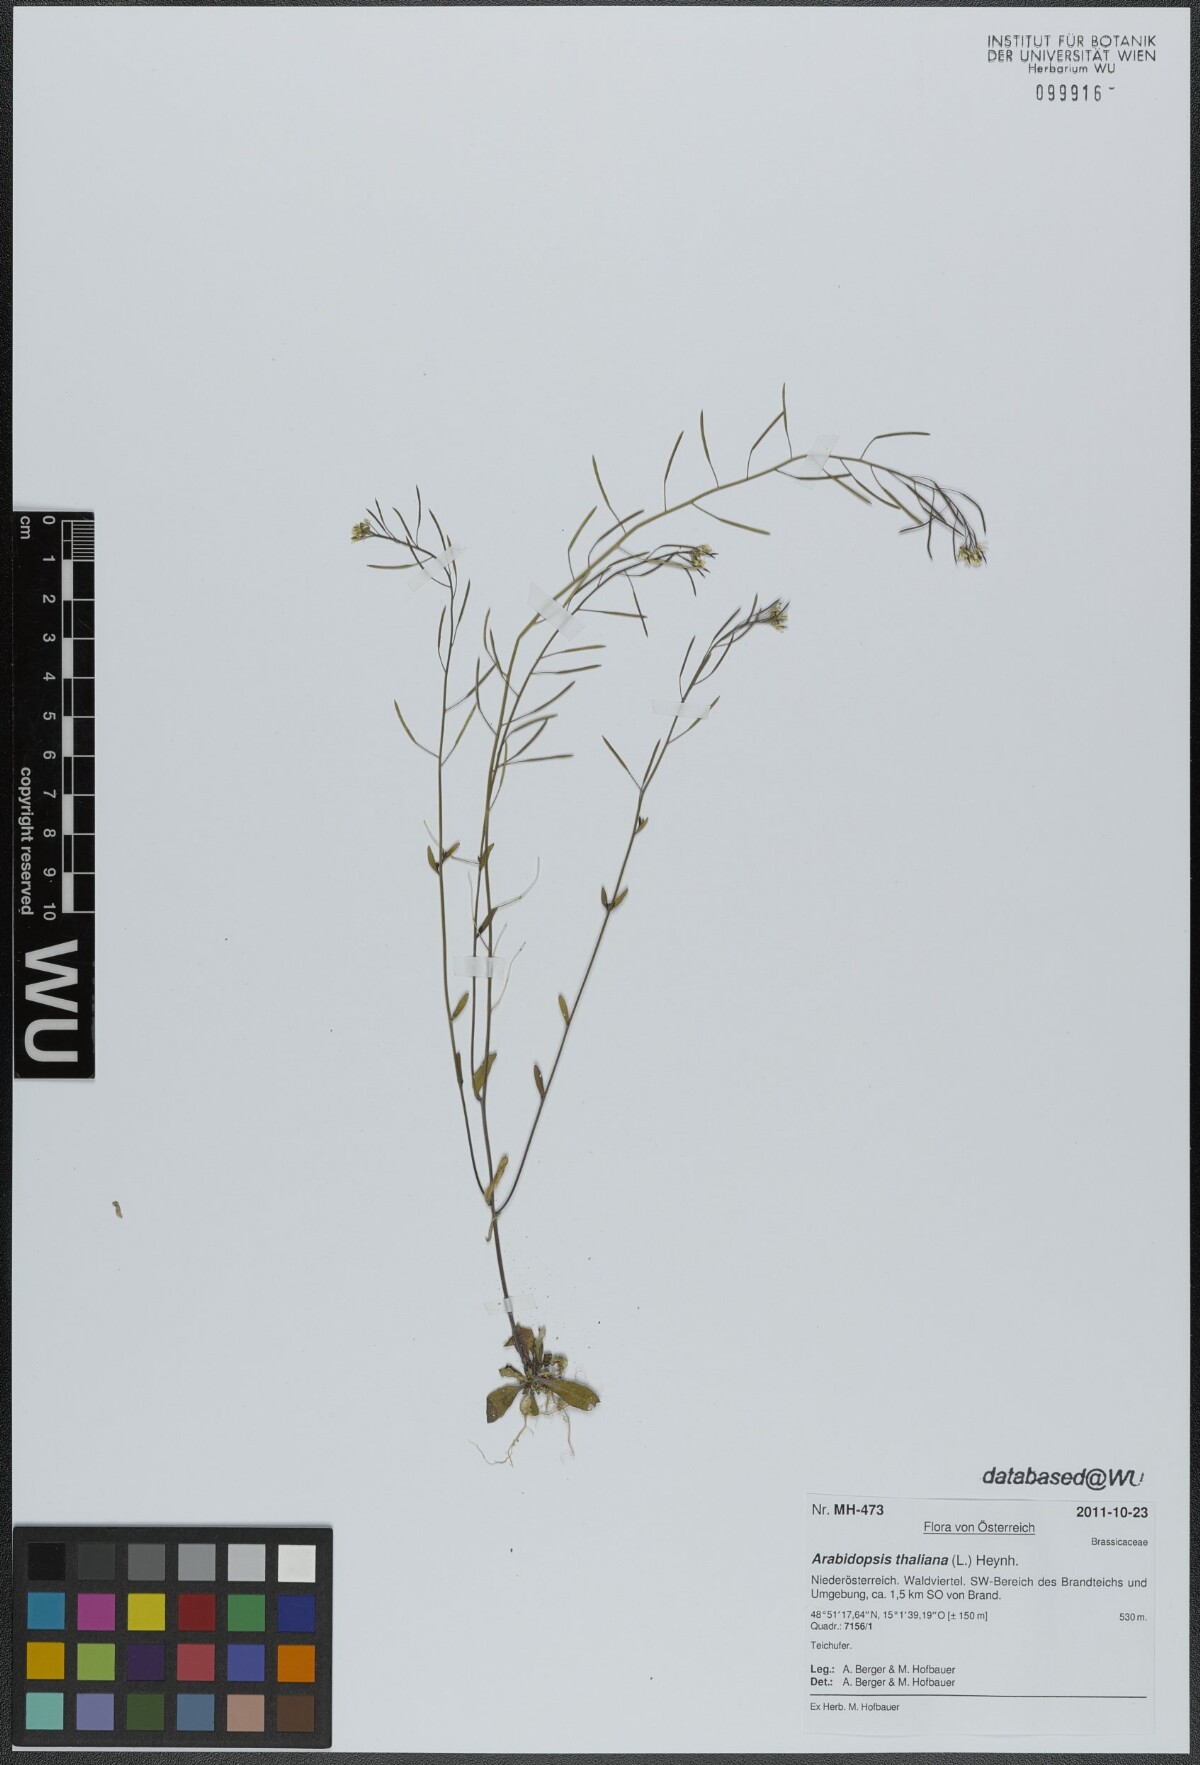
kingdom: Plantae
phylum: Tracheophyta
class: Magnoliopsida
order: Brassicales
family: Brassicaceae
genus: Arabidopsis
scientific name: Arabidopsis thaliana
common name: Thale cress
